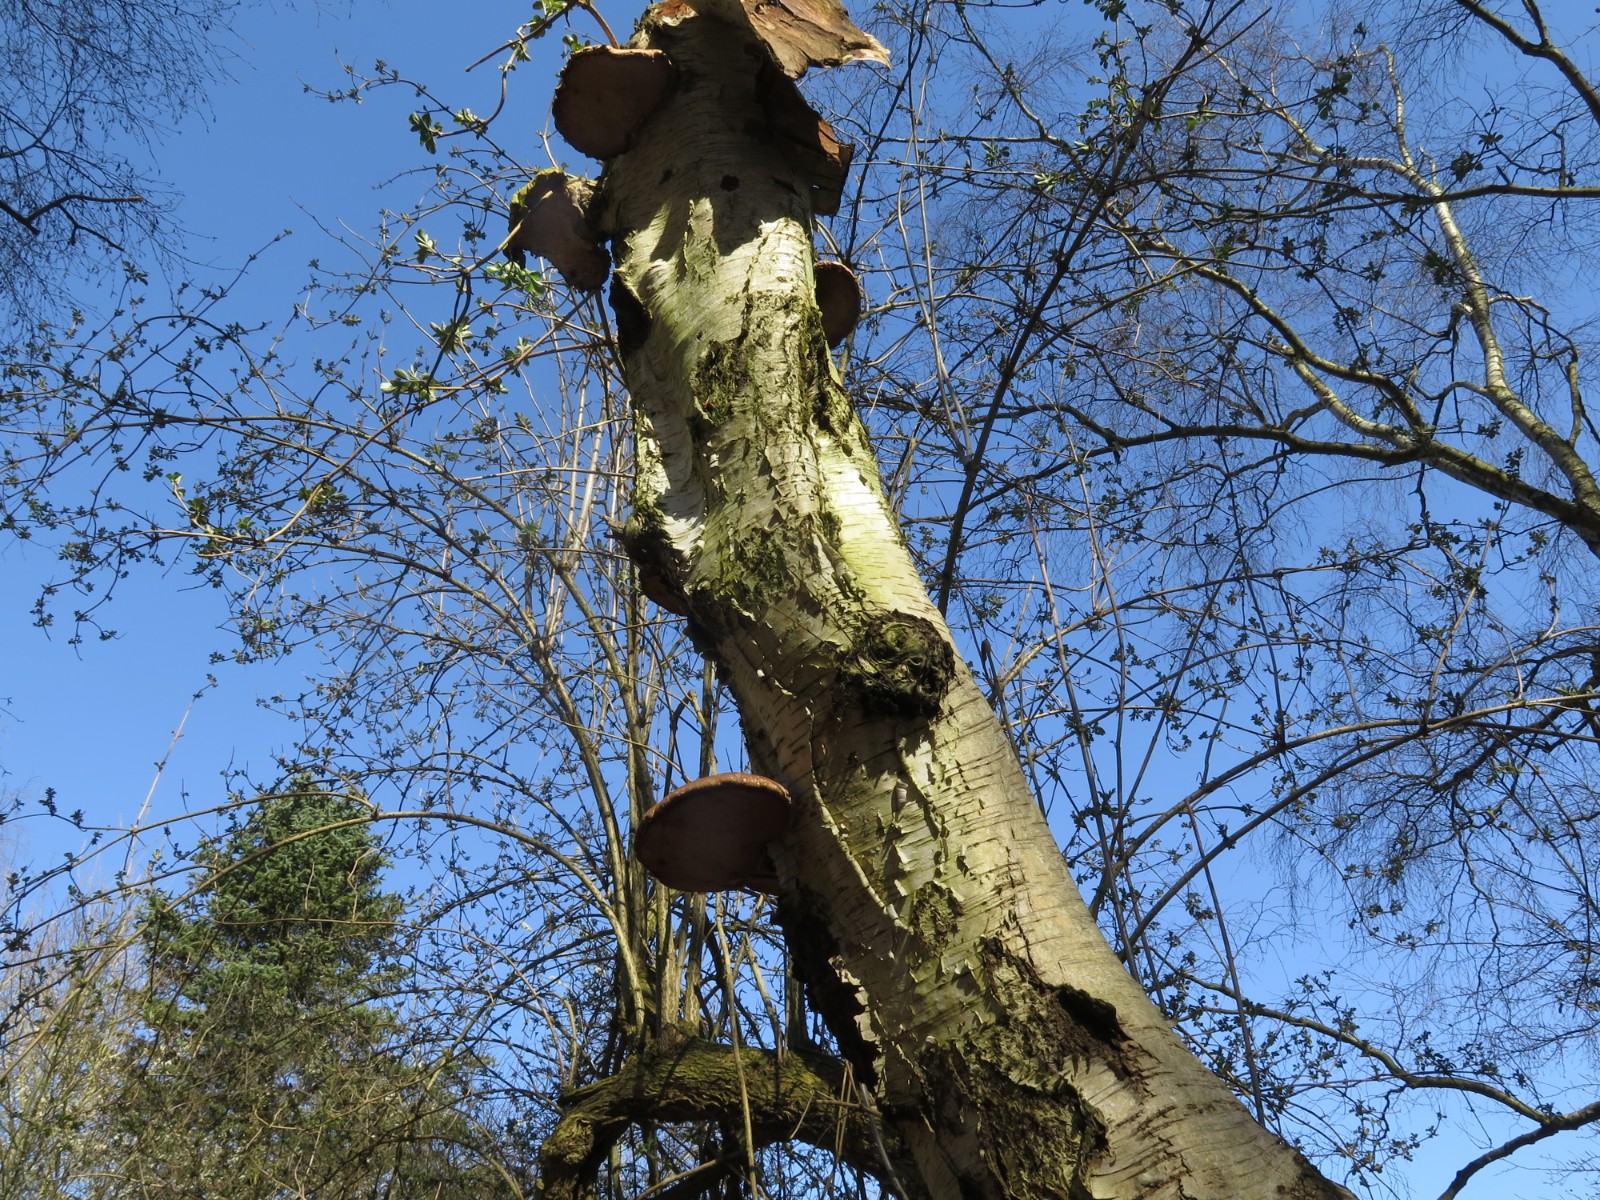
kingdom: Fungi
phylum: Basidiomycota
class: Agaricomycetes
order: Polyporales
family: Fomitopsidaceae
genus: Fomitopsis
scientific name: Fomitopsis betulina
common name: birkeporesvamp
